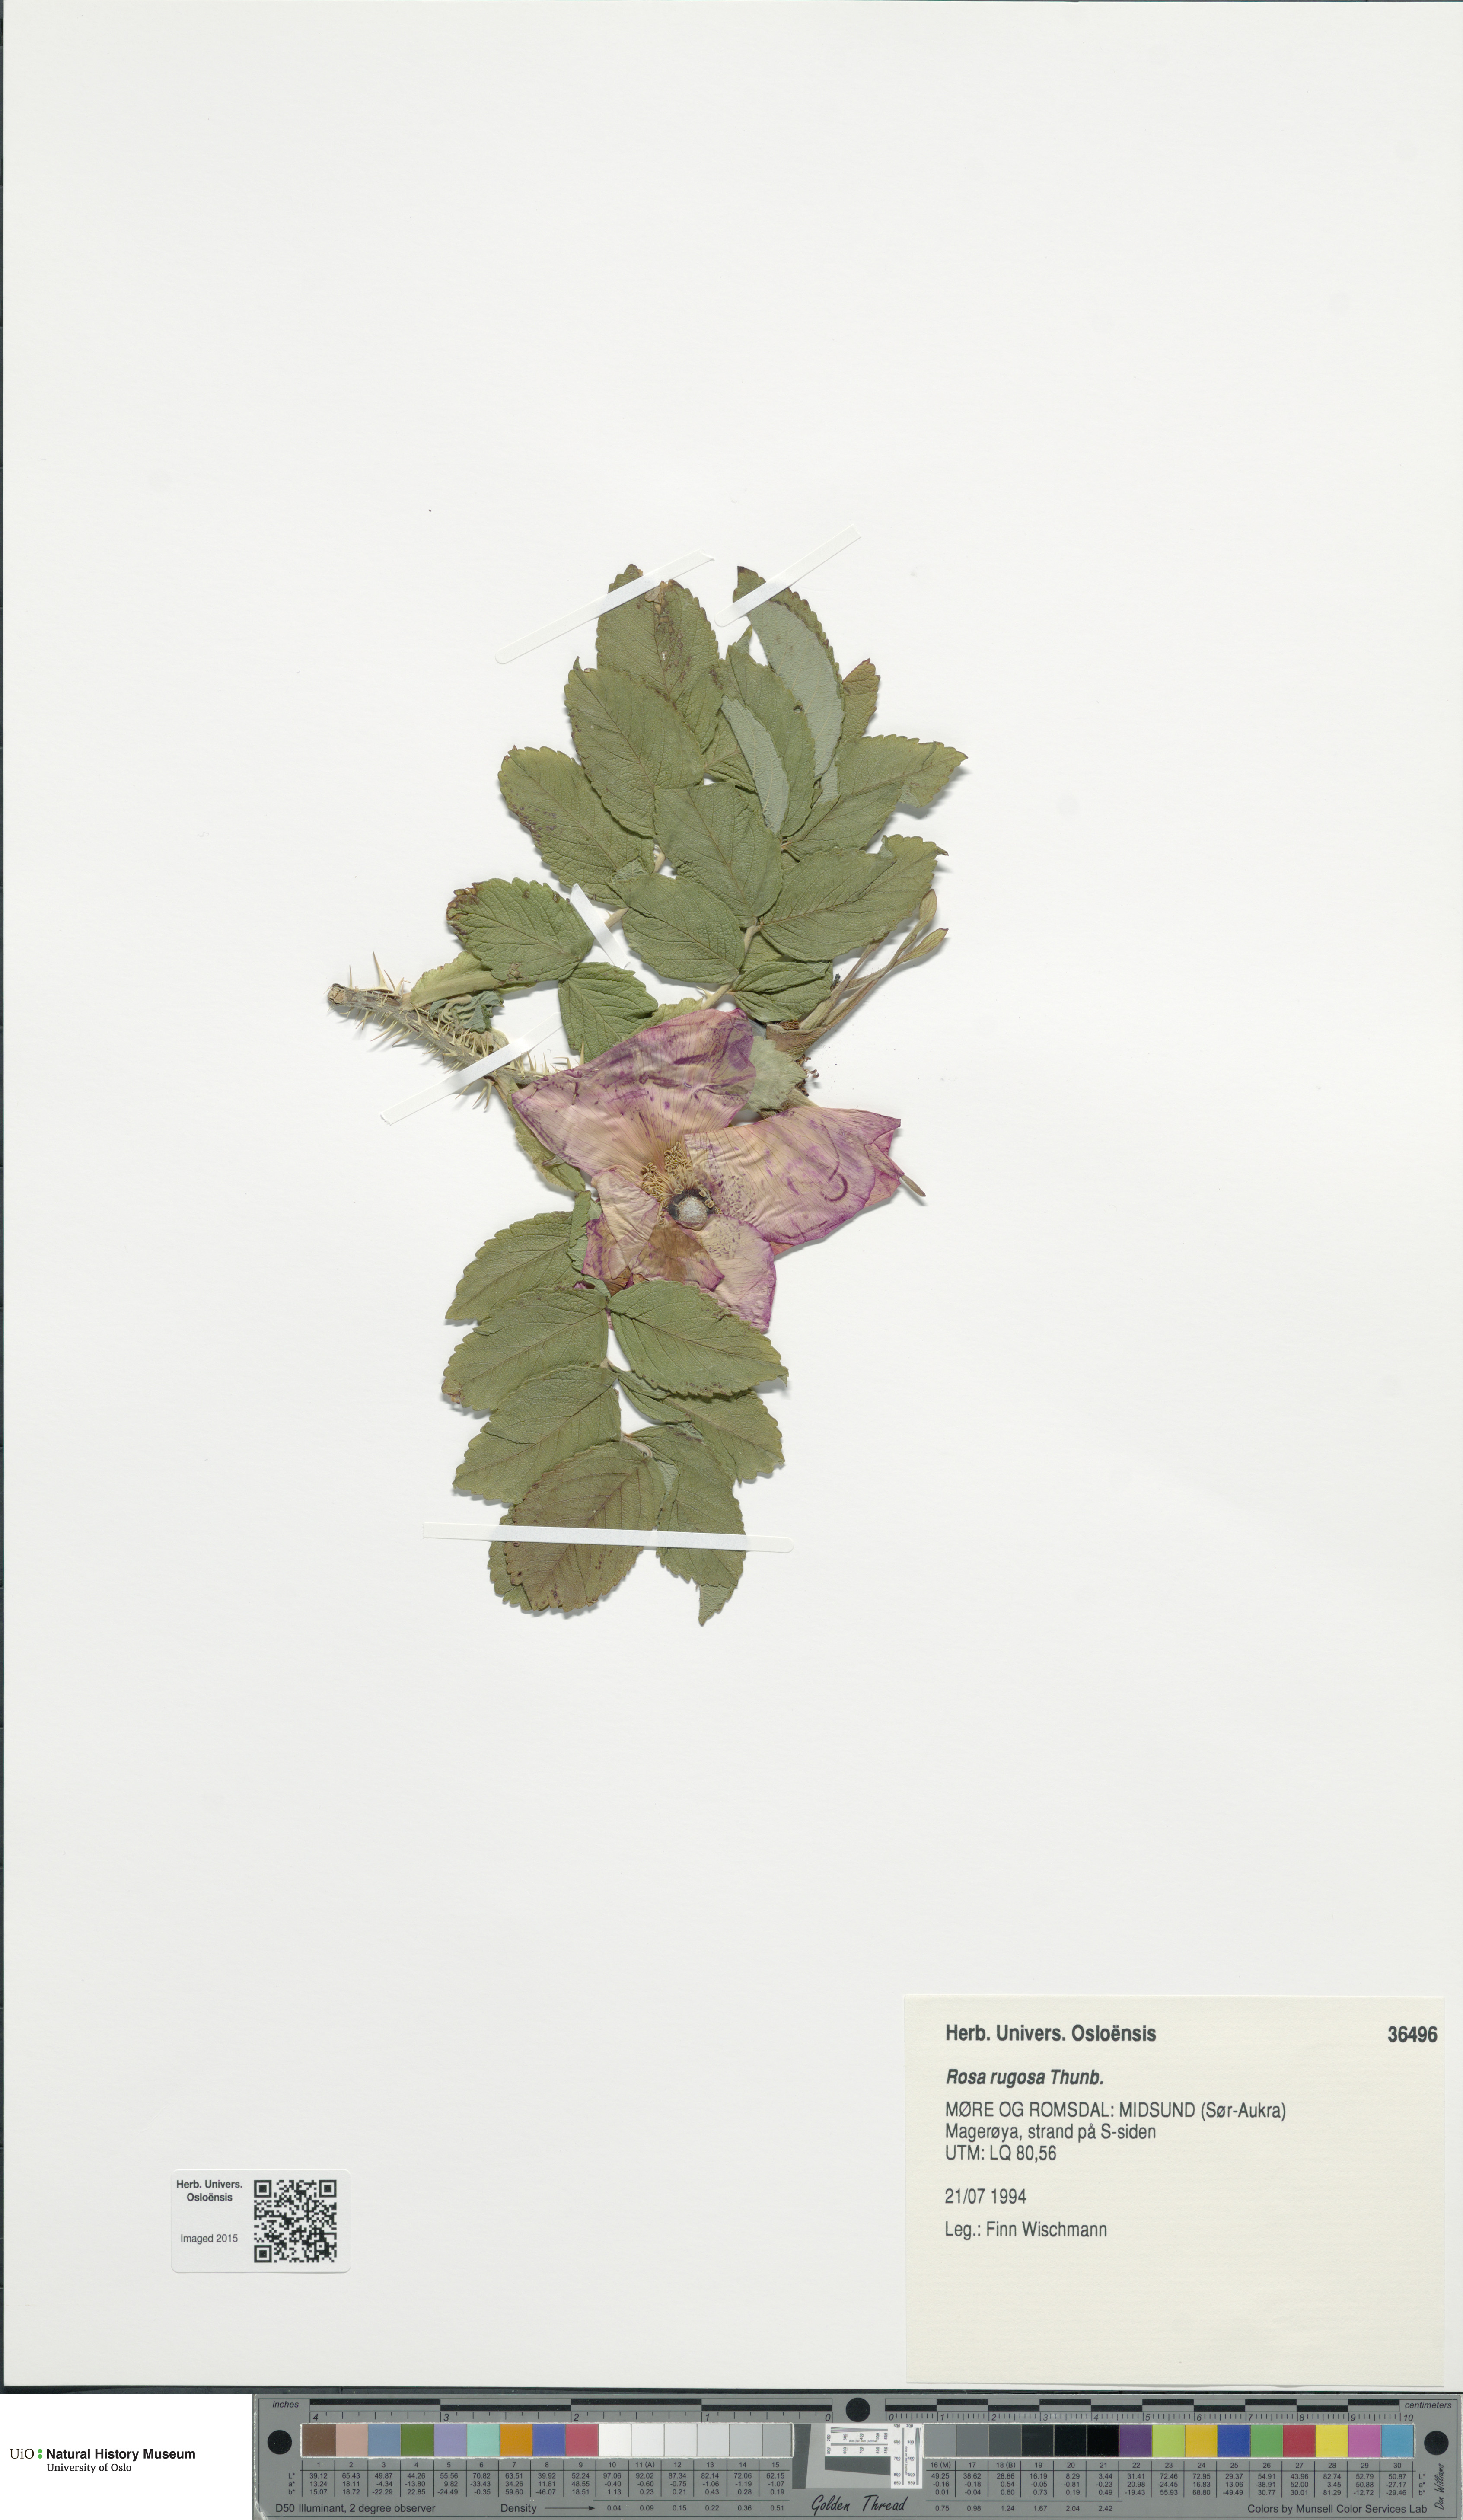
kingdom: Plantae
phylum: Tracheophyta
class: Magnoliopsida
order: Rosales
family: Rosaceae
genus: Rosa
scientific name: Rosa rugosa
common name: Japanese rose
